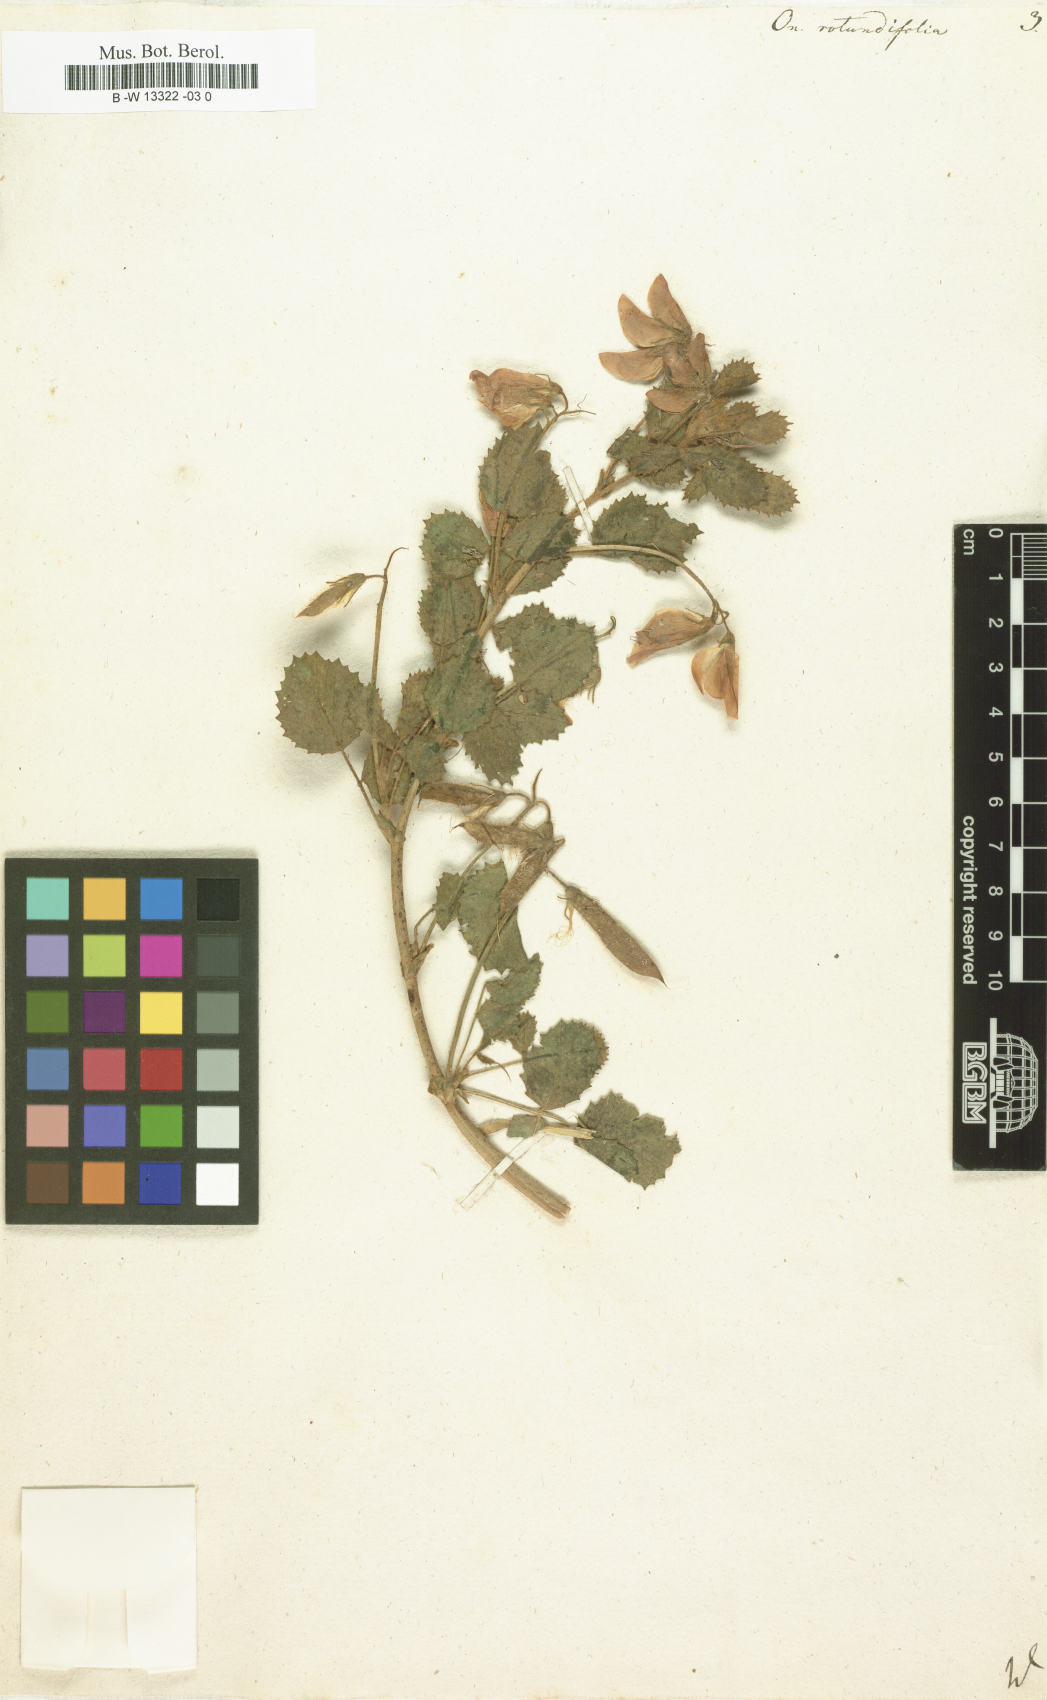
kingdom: Plantae
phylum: Tracheophyta
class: Magnoliopsida
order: Fabales
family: Fabaceae
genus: Ononis
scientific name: Ononis rotundifolia
